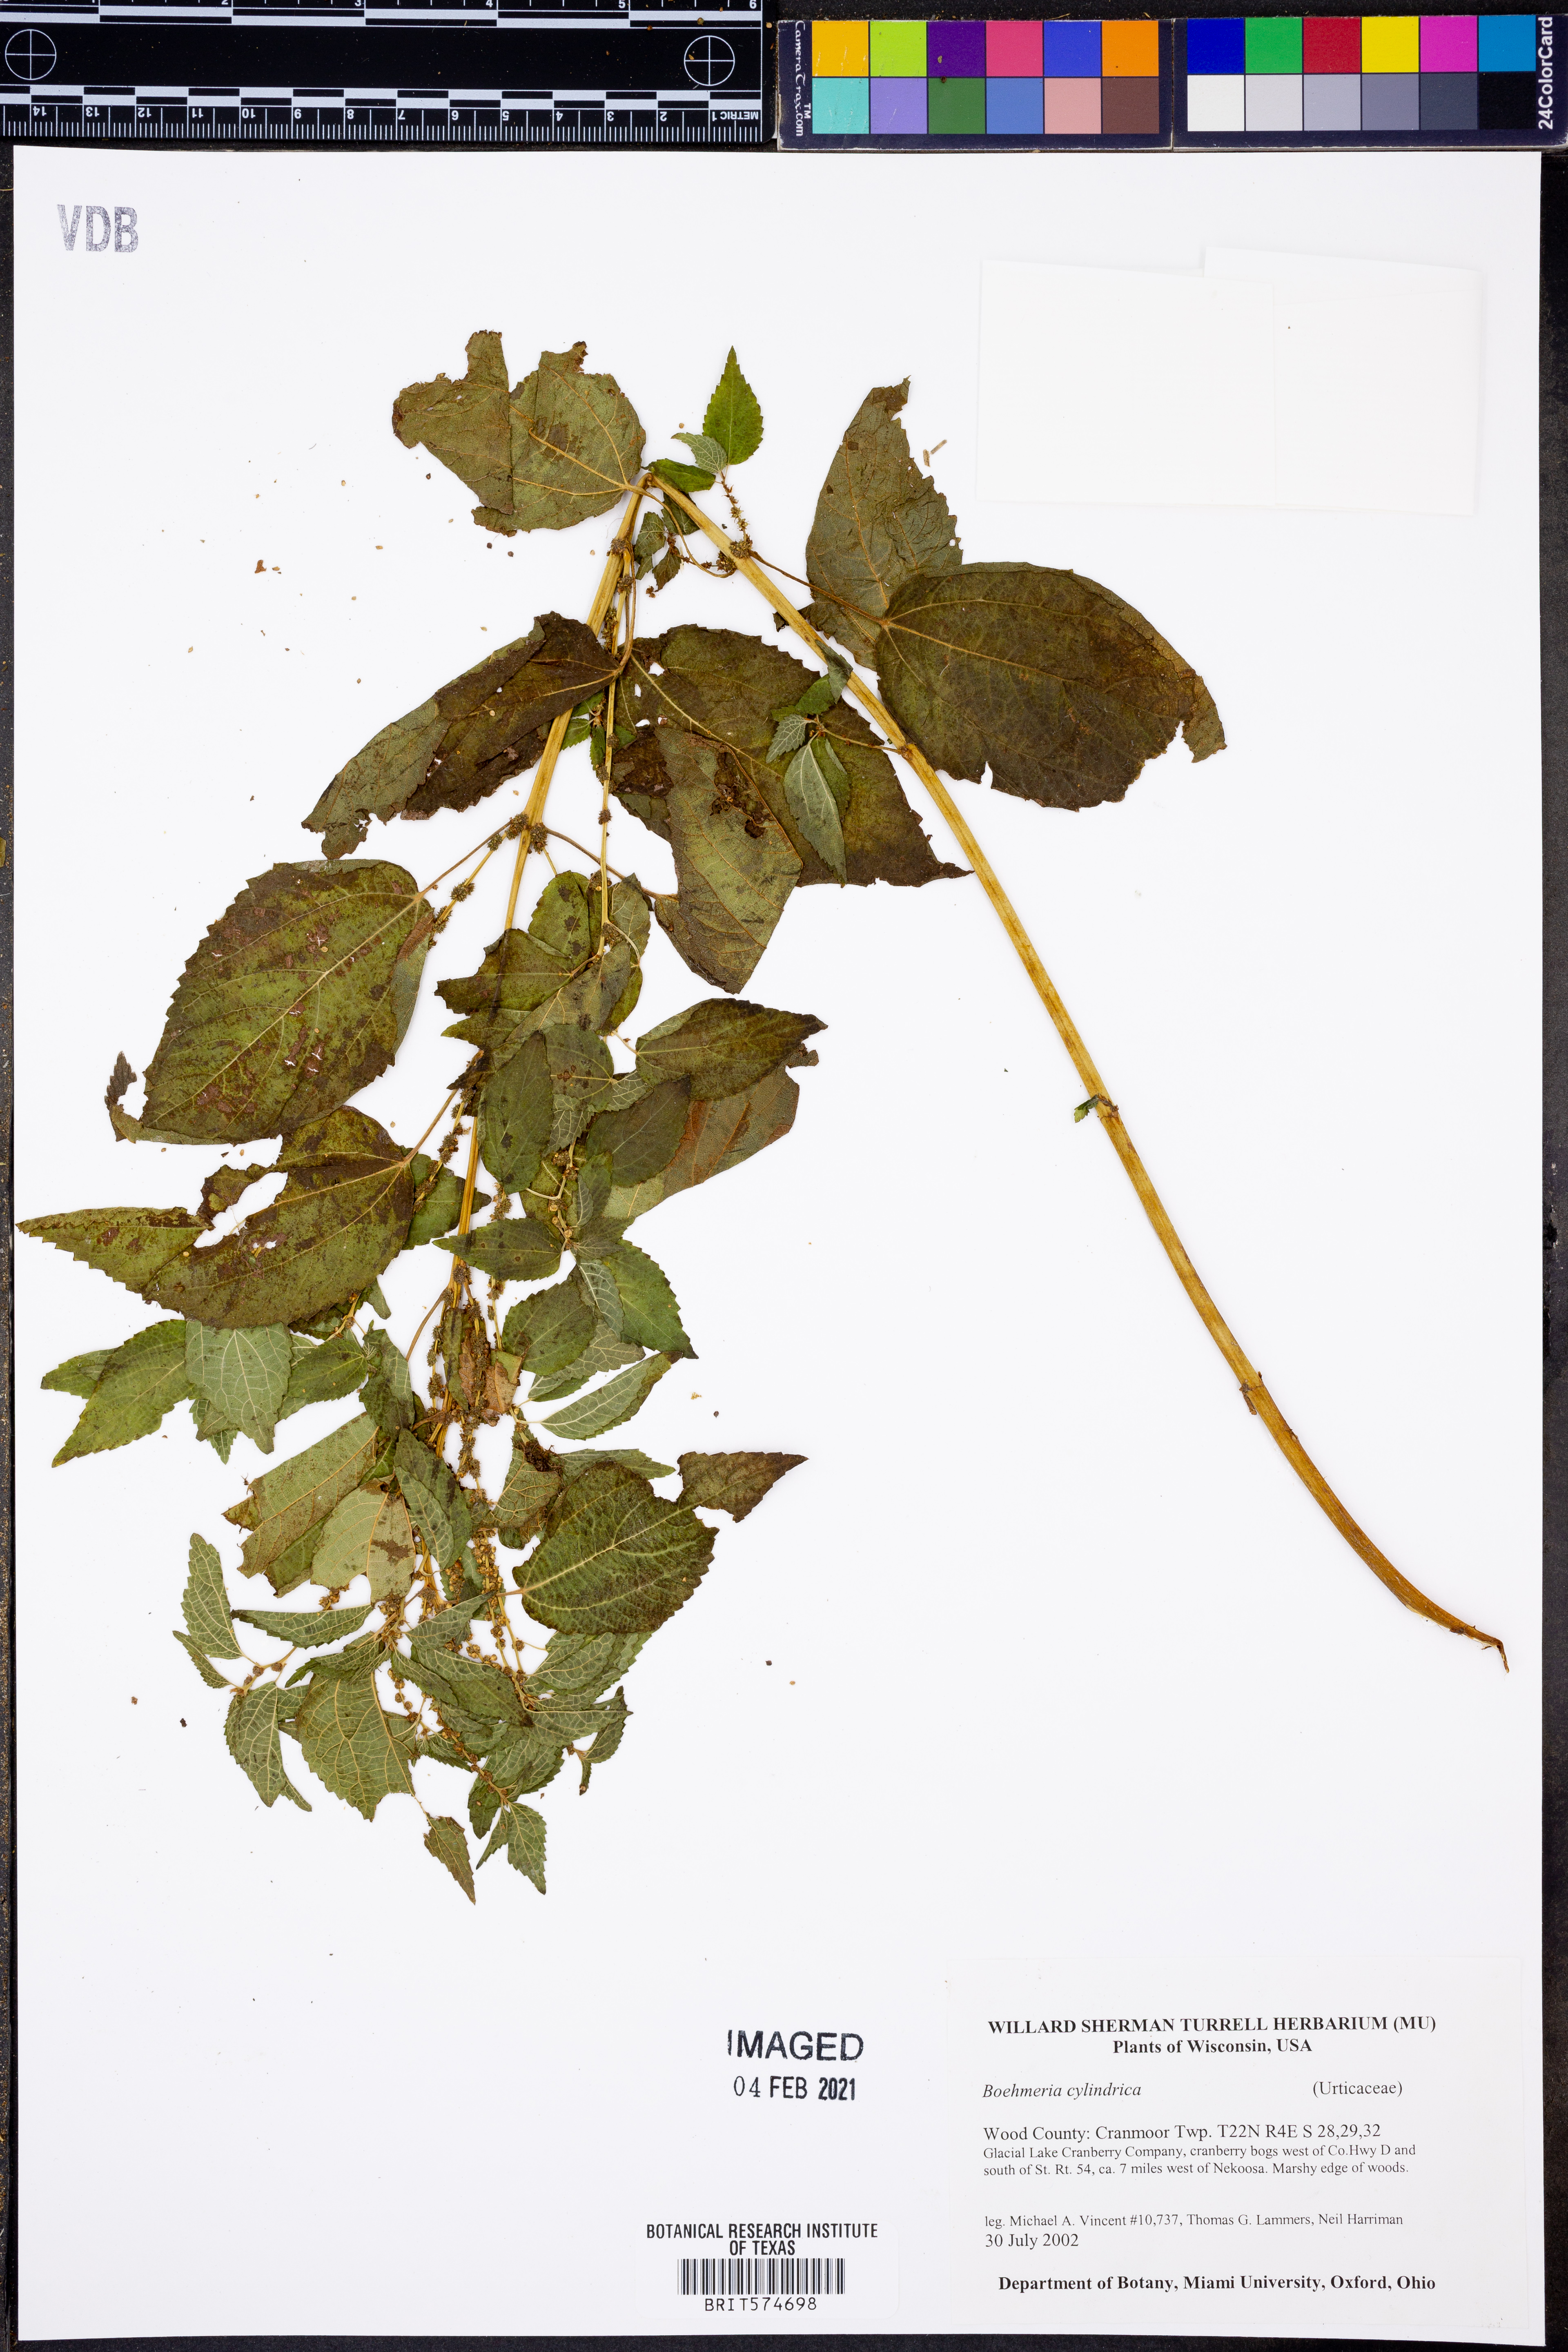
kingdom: Plantae
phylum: Tracheophyta
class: Magnoliopsida
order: Rosales
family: Urticaceae
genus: Boehmeria
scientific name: Boehmeria cylindrica
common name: Bog-hemp
